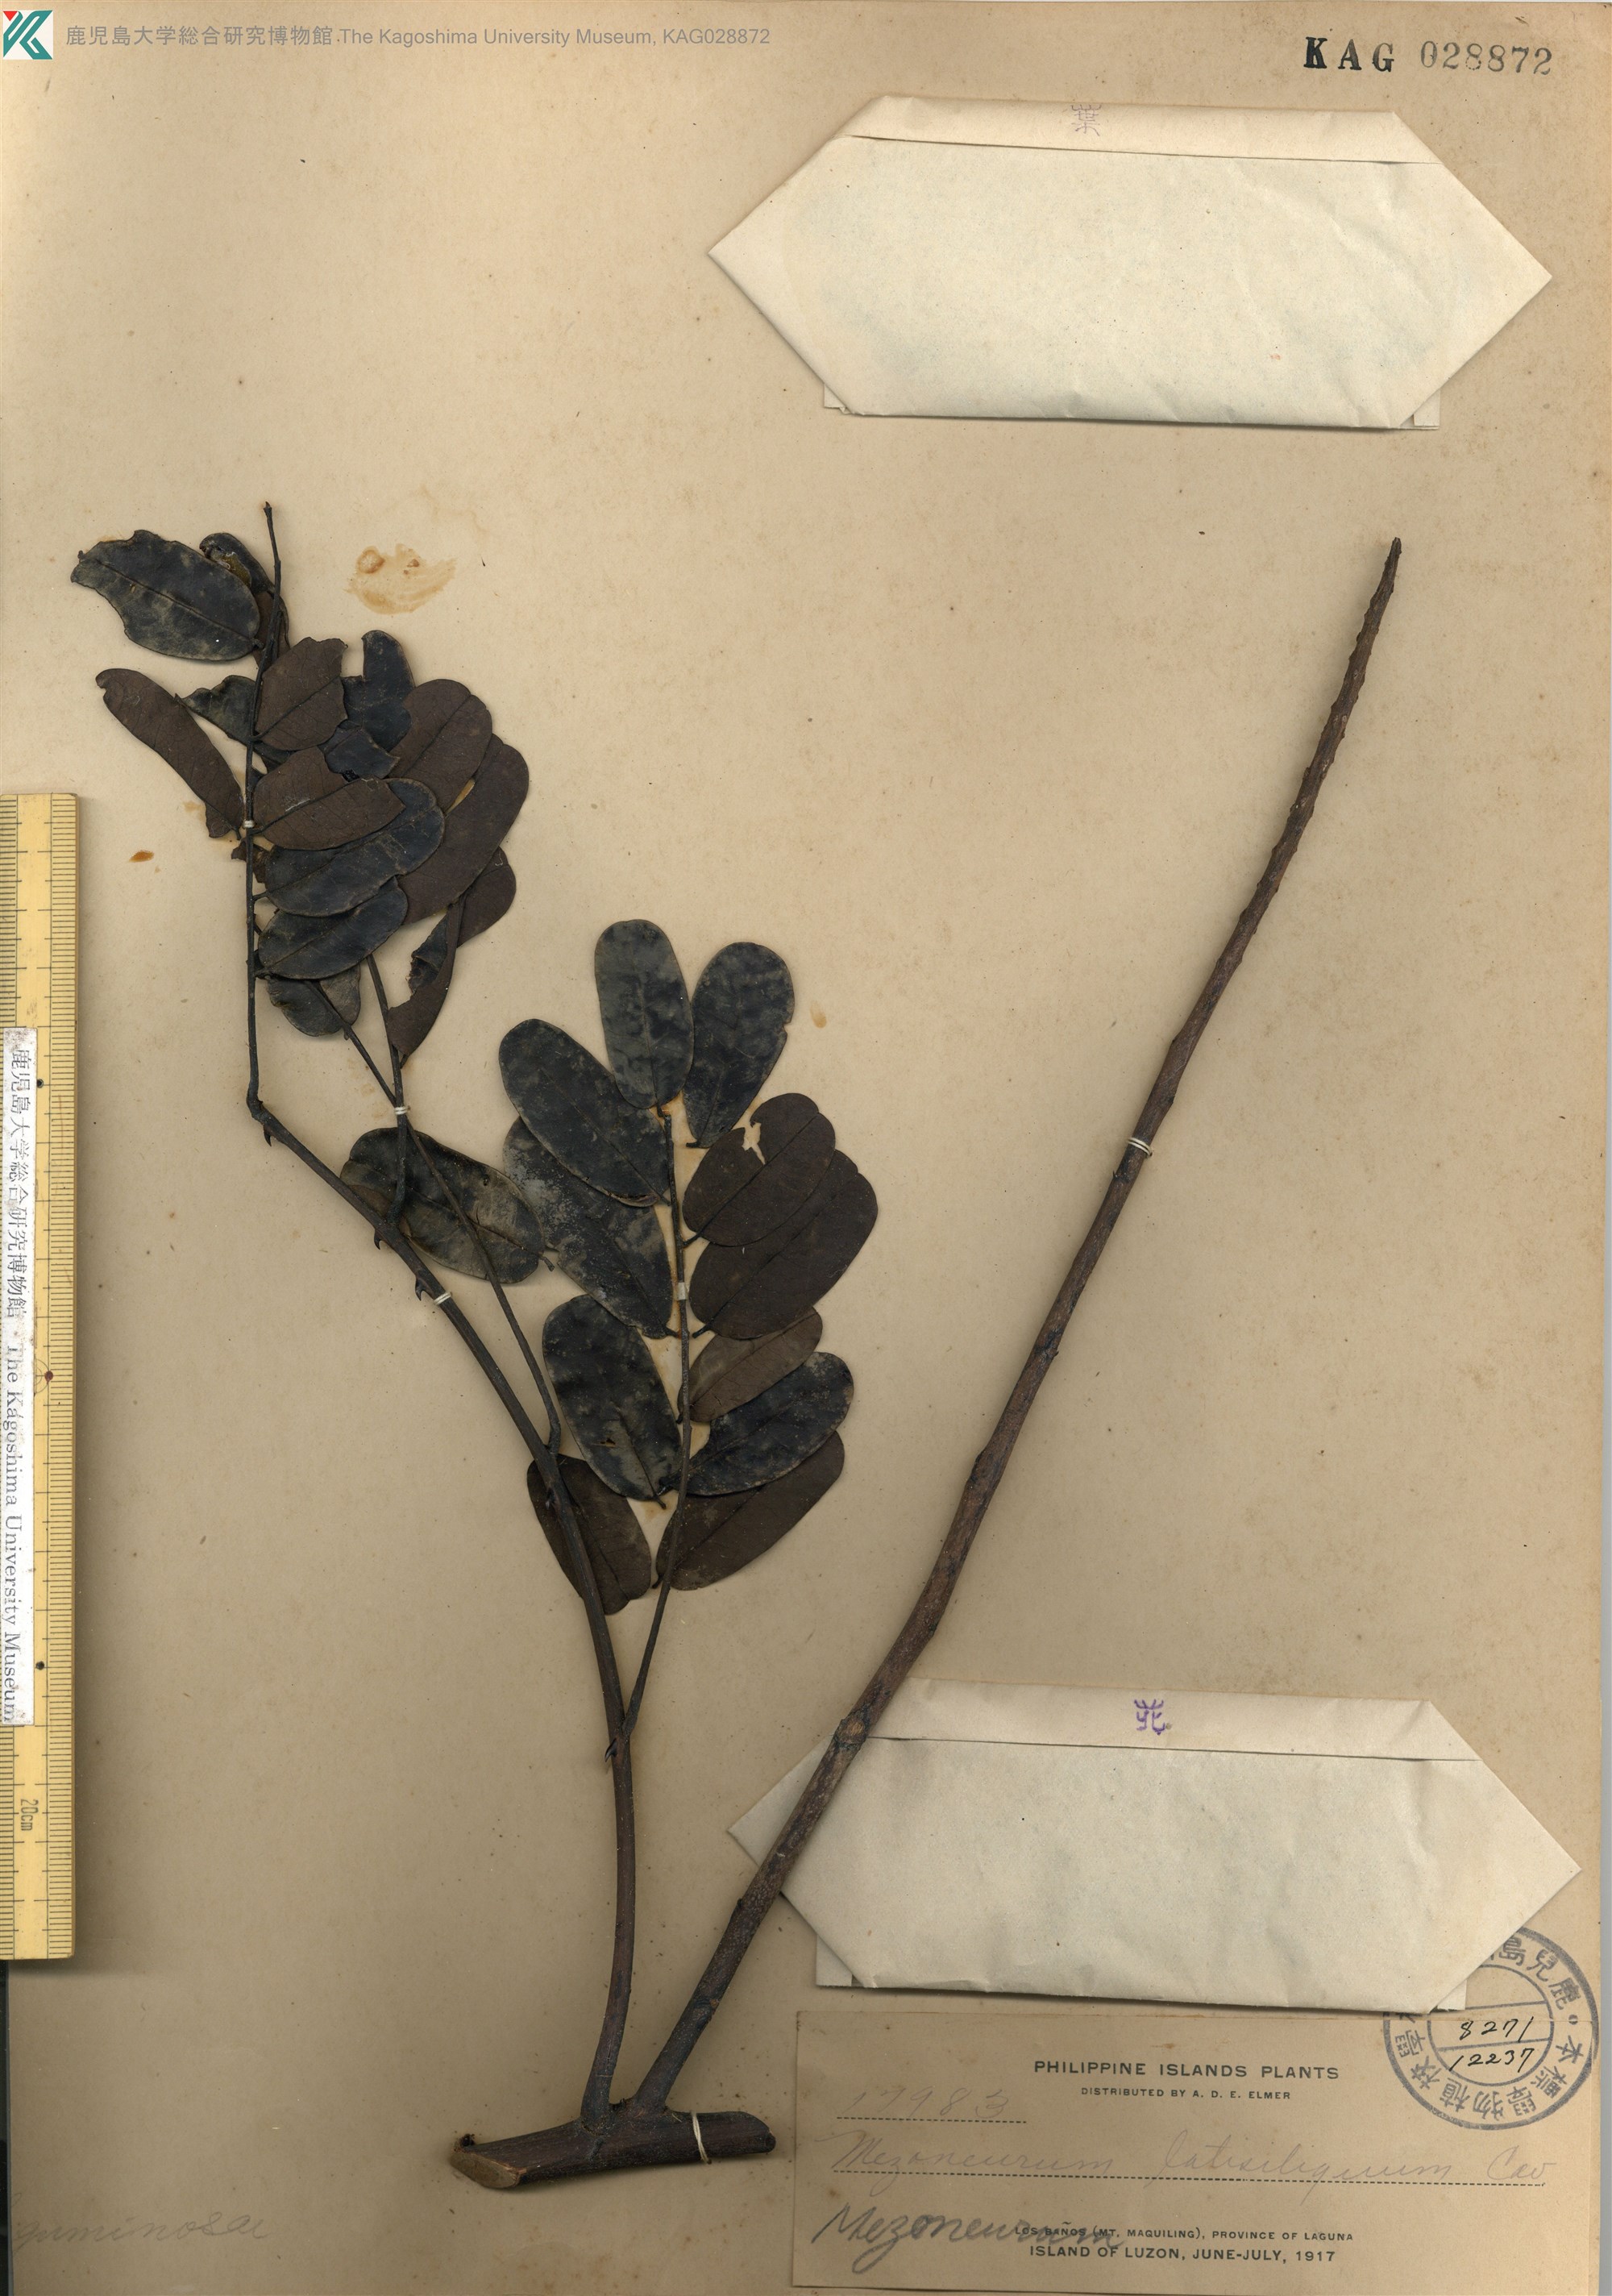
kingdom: Plantae
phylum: Tracheophyta
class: Magnoliopsida
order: Fabales
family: Fabaceae
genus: Mezoneurum
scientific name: Mezoneurum
